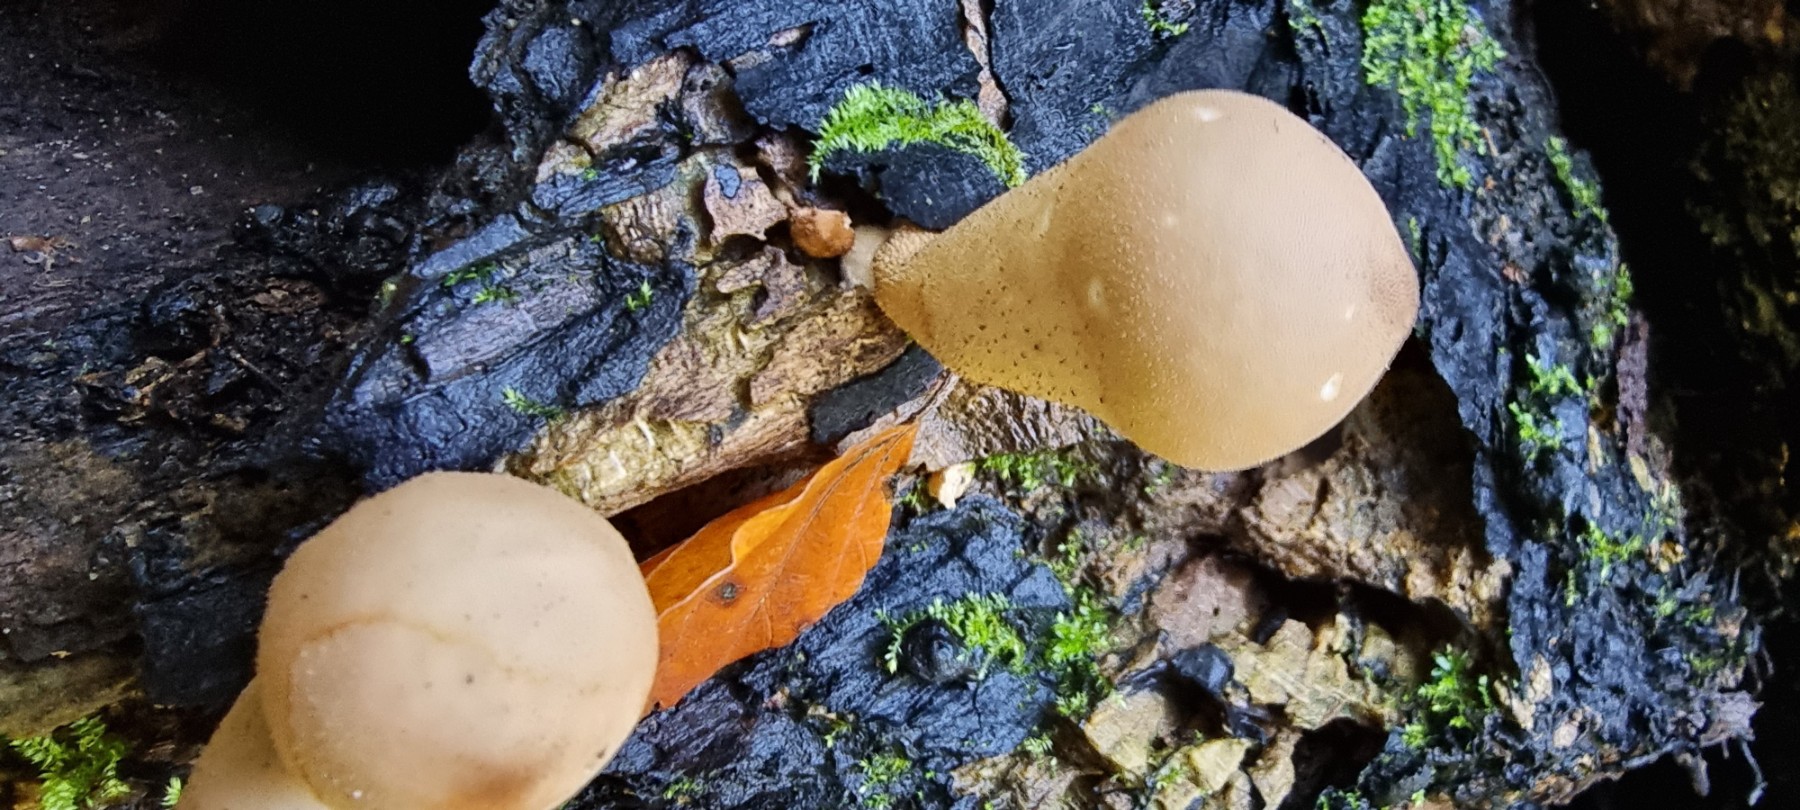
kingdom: Fungi
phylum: Basidiomycota
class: Agaricomycetes
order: Agaricales
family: Lycoperdaceae
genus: Apioperdon
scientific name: Apioperdon pyriforme
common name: pære-støvbold
